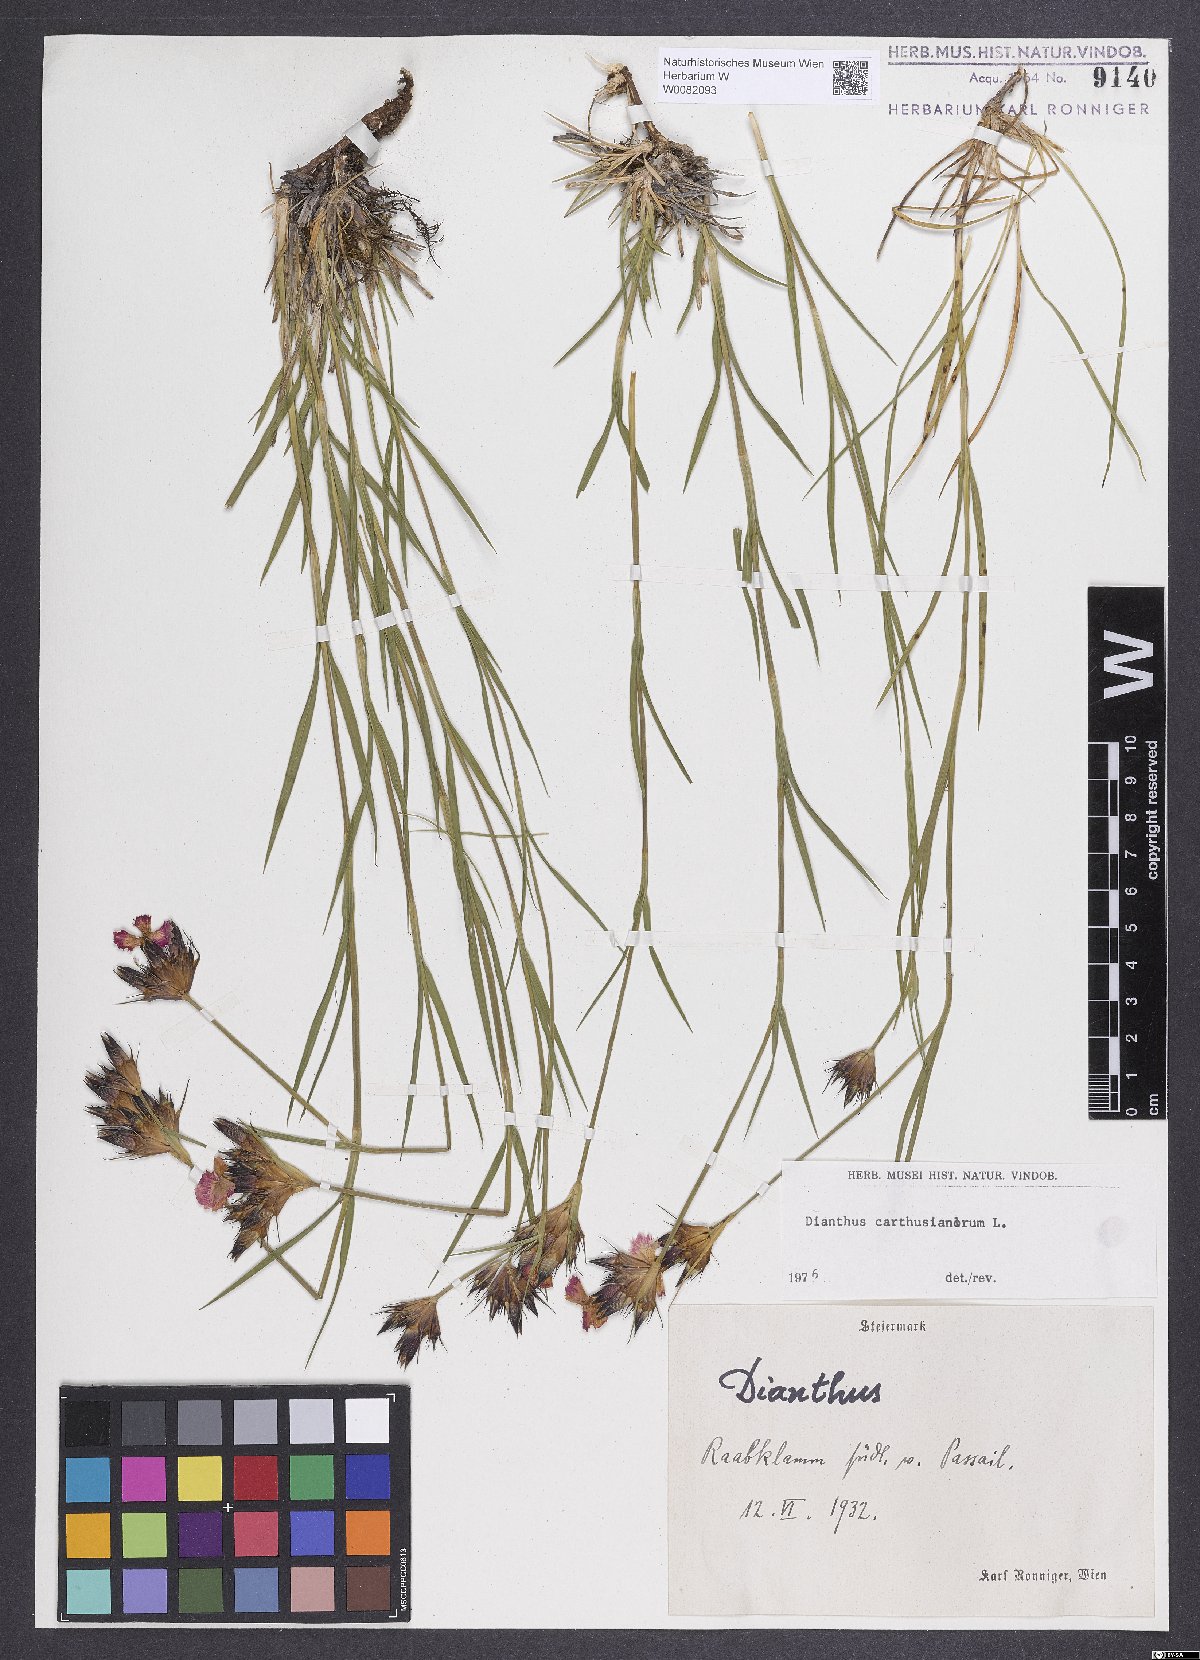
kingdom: Plantae
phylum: Tracheophyta
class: Magnoliopsida
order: Caryophyllales
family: Caryophyllaceae
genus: Dianthus
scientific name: Dianthus carthusianorum
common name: Carthusian pink
